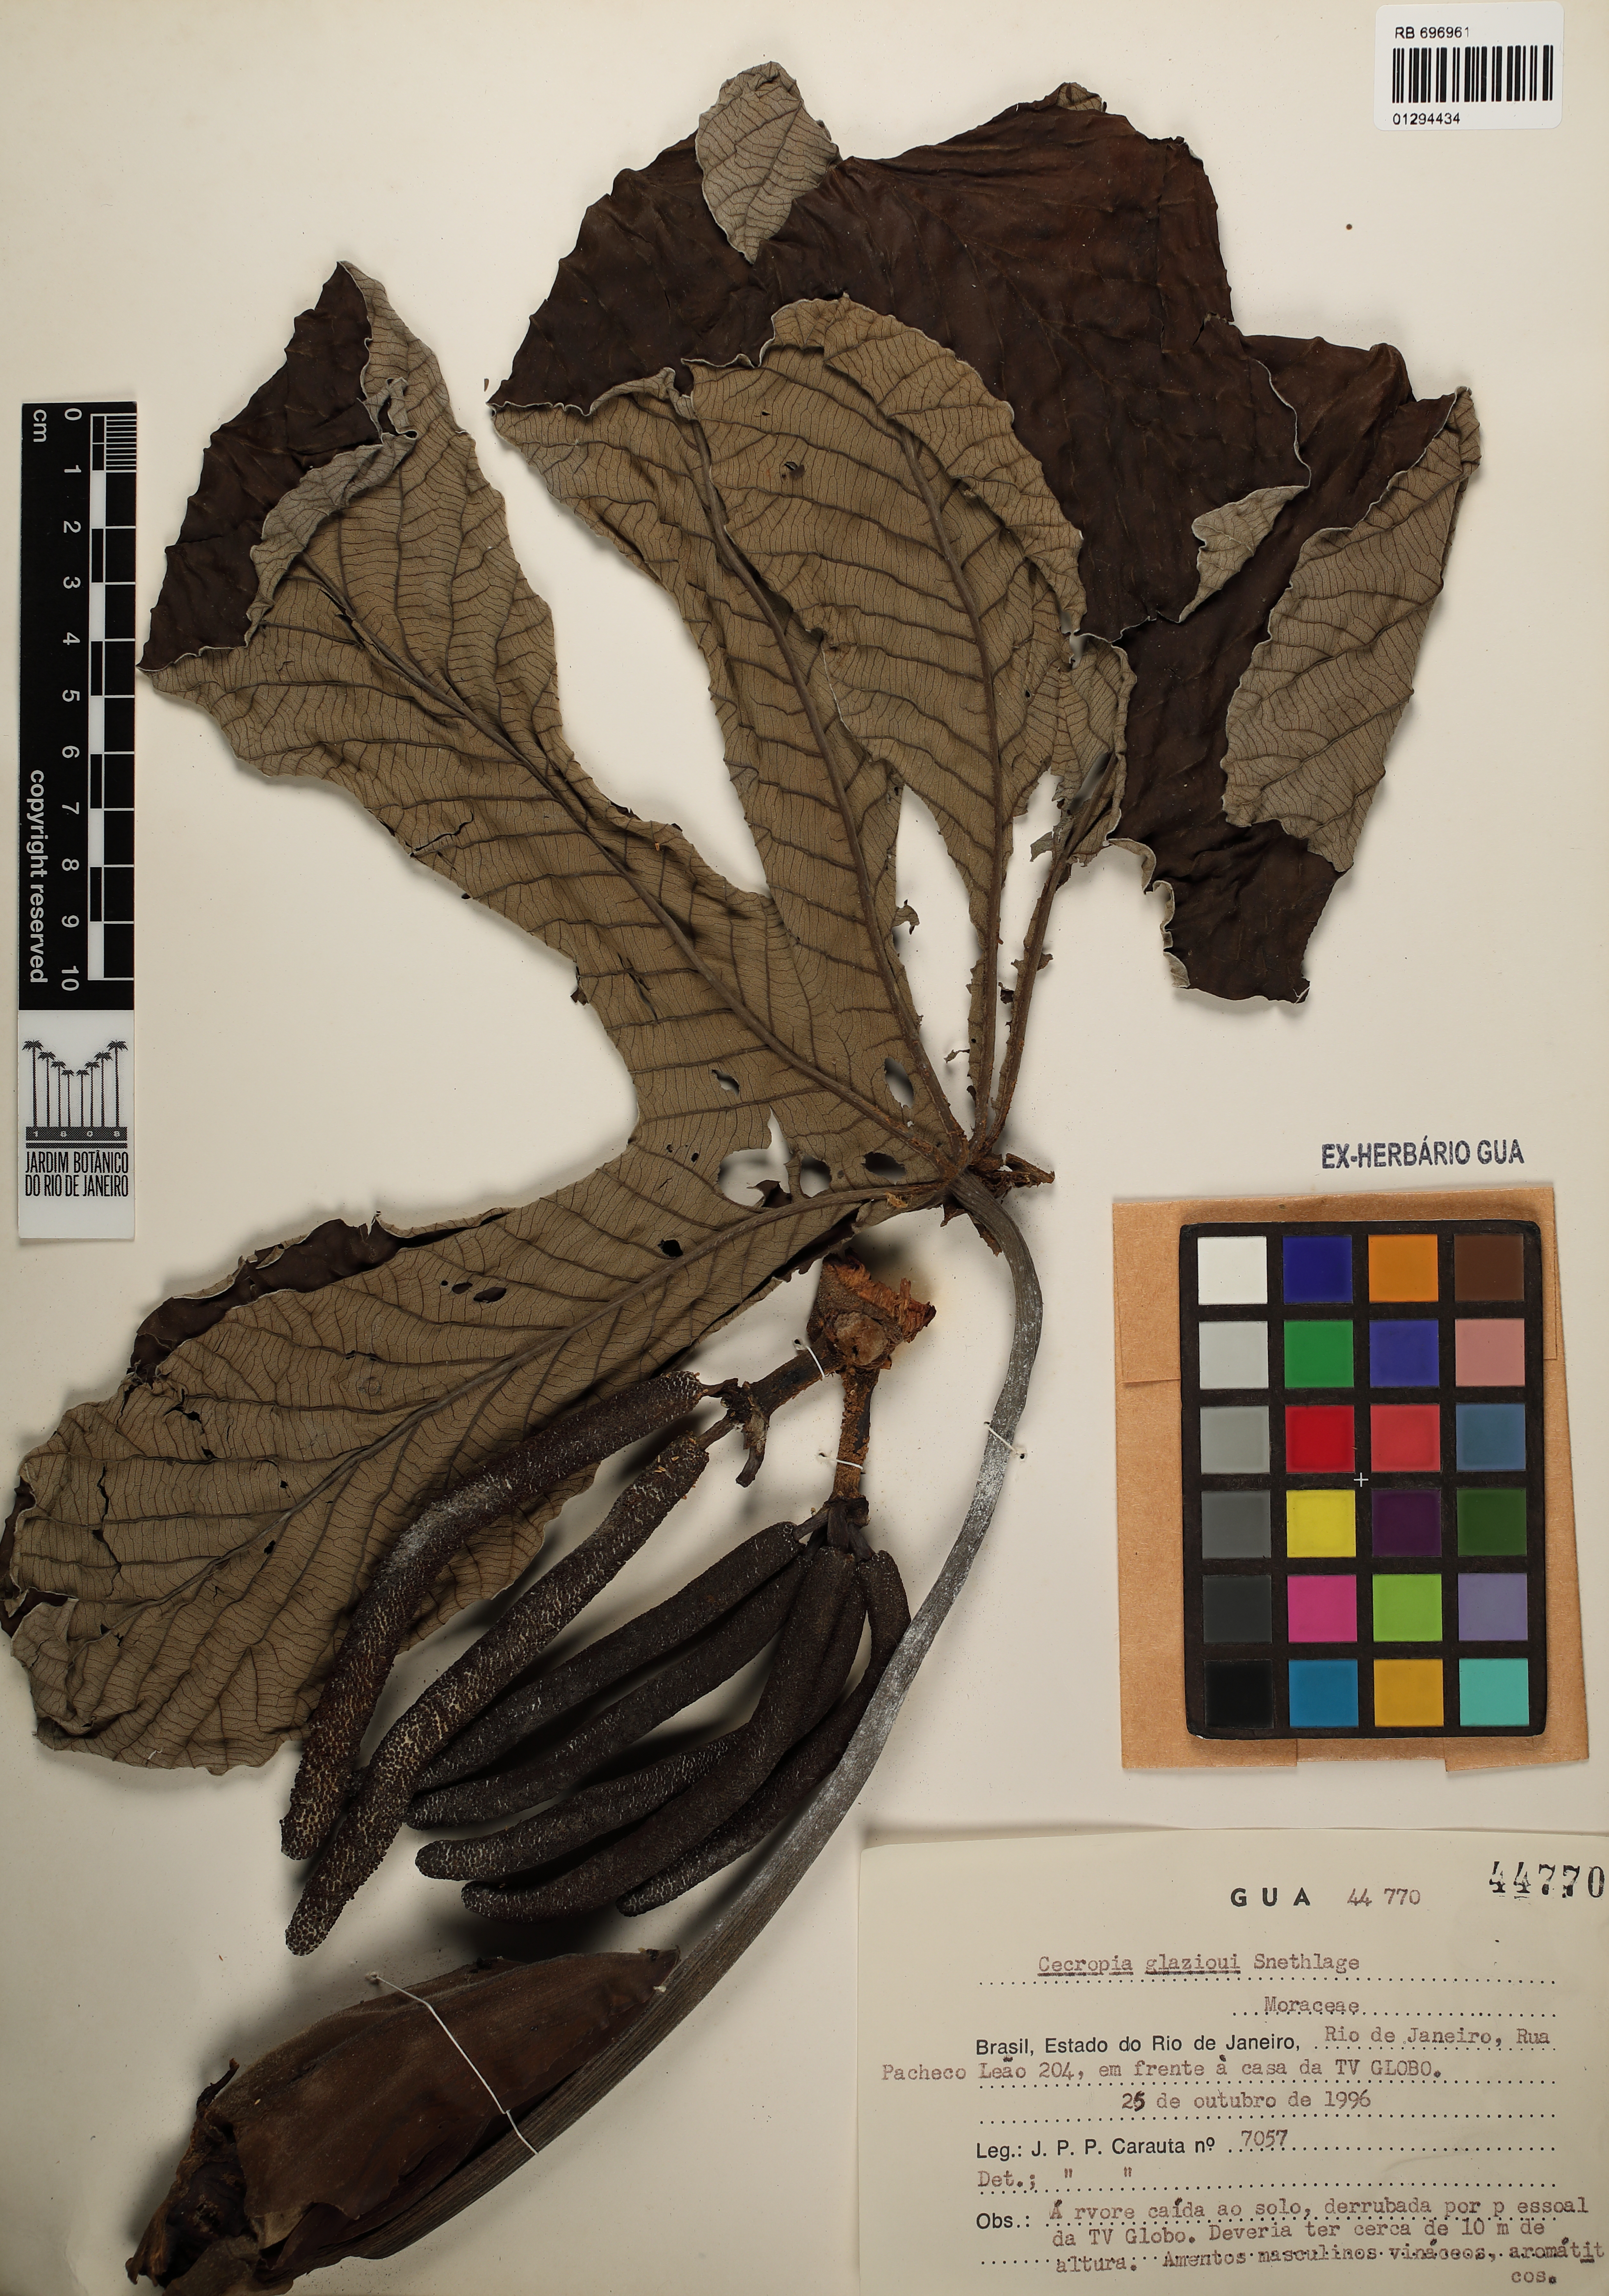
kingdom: Plantae
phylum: Tracheophyta
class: Magnoliopsida
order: Rosales
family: Urticaceae
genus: Cecropia
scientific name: Cecropia glaziovii
